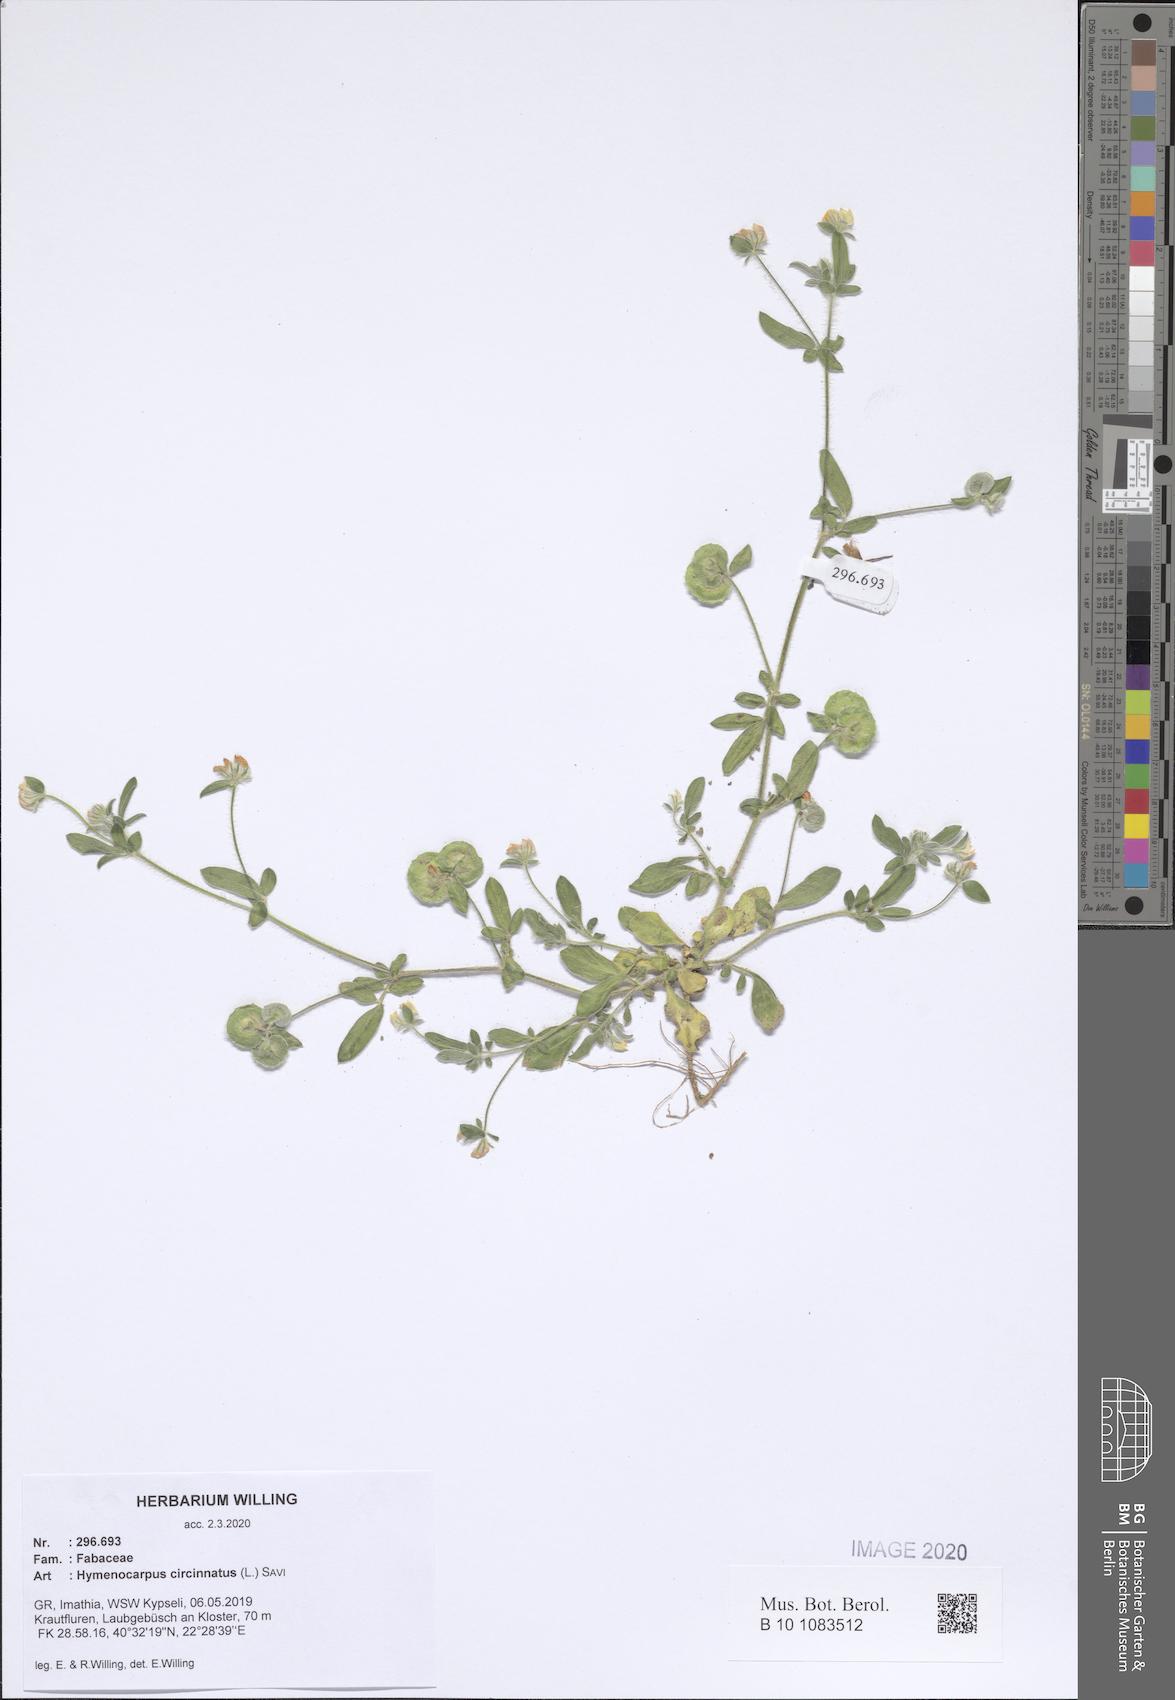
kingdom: Plantae
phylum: Tracheophyta
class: Magnoliopsida
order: Fabales
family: Fabaceae
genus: Anthyllis
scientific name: Anthyllis circinnata
